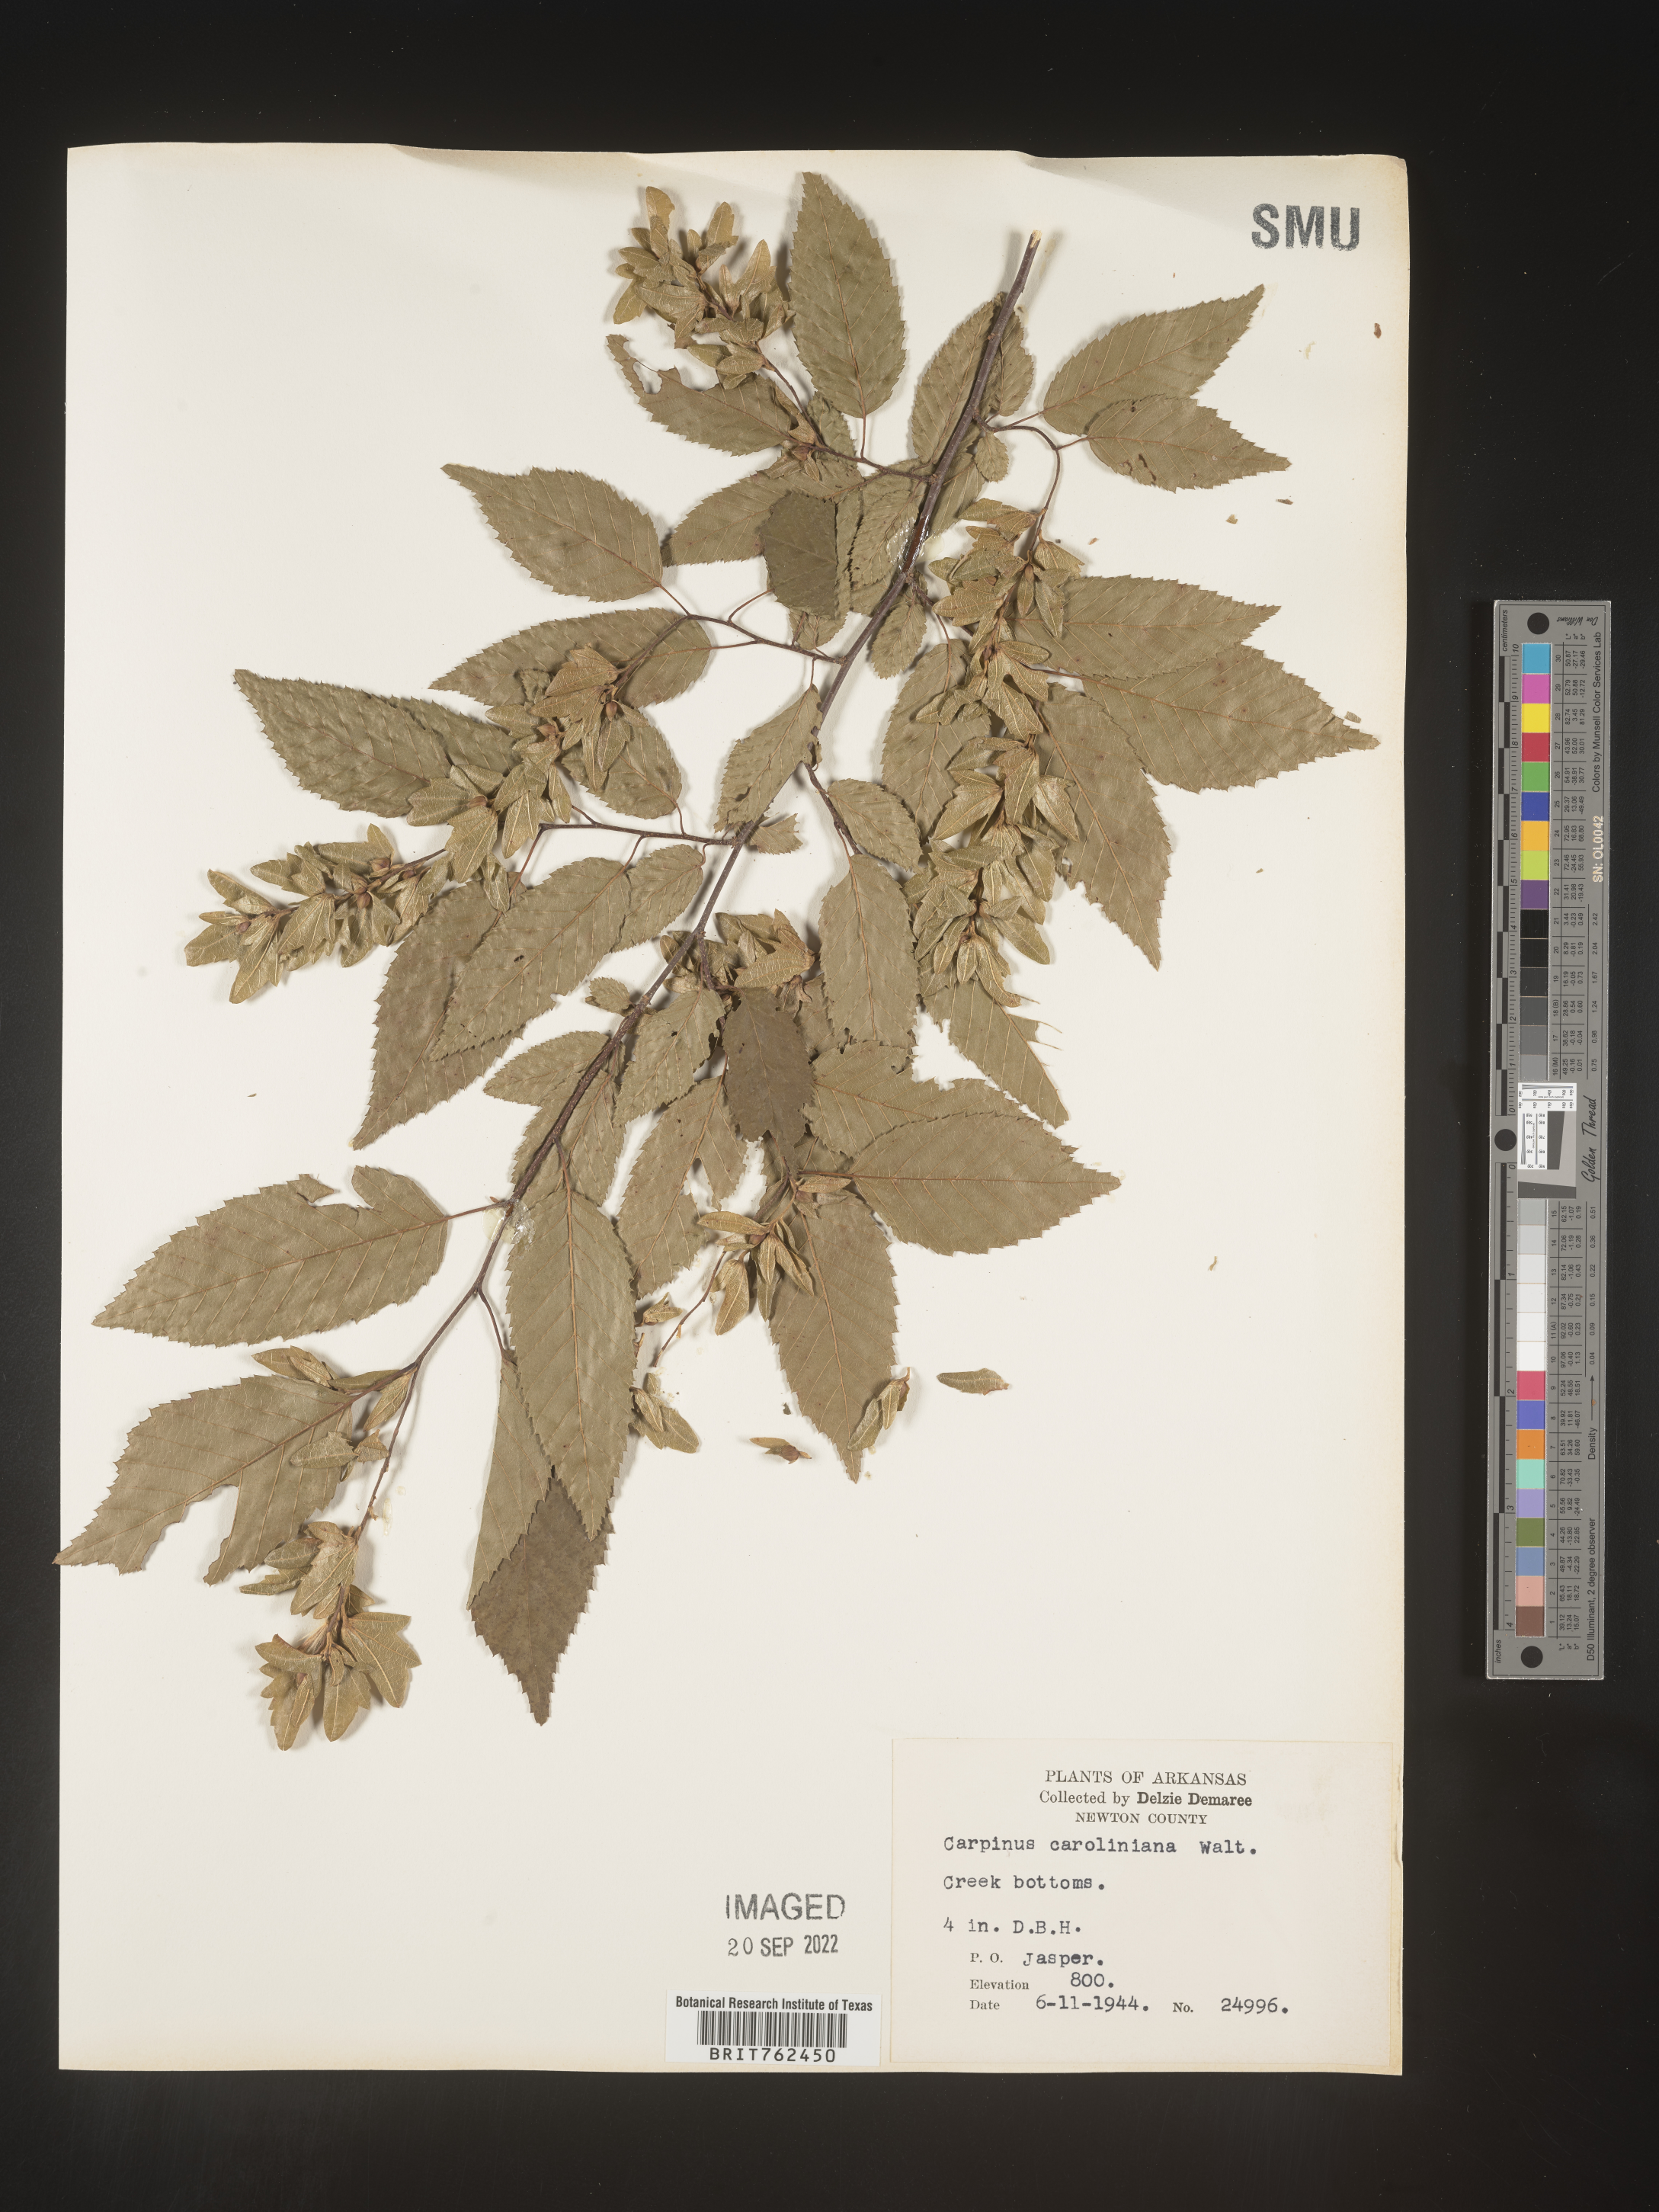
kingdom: Plantae
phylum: Tracheophyta
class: Magnoliopsida
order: Fagales
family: Betulaceae
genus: Carpinus
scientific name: Carpinus caroliniana
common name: American hornbeam
